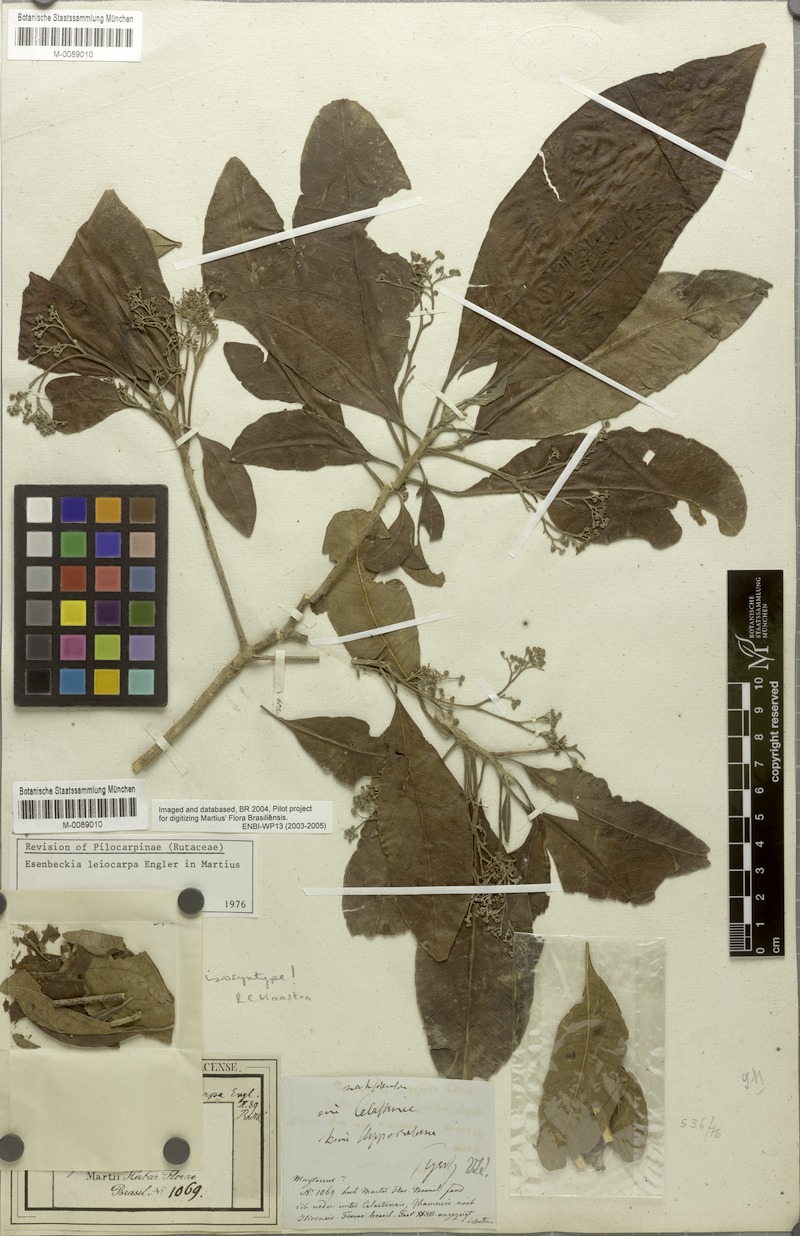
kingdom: Plantae
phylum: Tracheophyta
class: Magnoliopsida
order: Sapindales
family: Rutaceae
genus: Esenbeckia
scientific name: Esenbeckia leiocarpa
